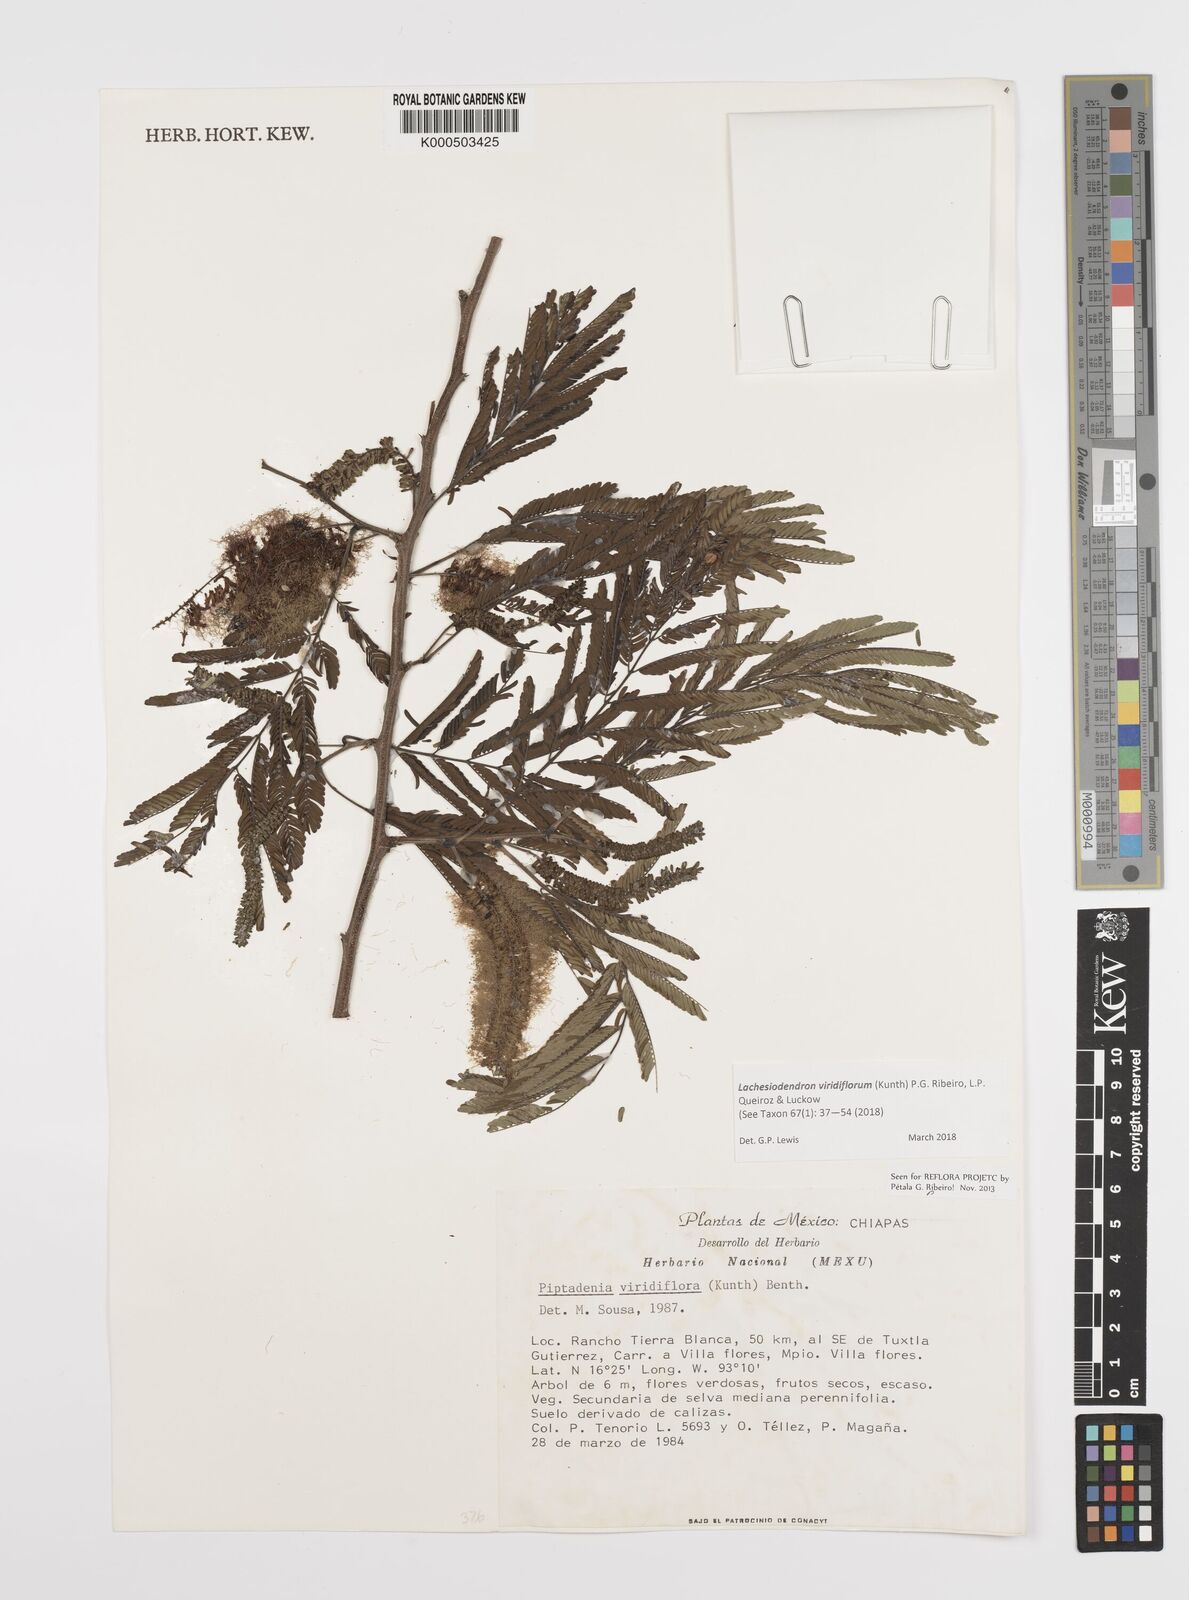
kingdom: Plantae
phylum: Tracheophyta
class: Magnoliopsida
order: Fabales
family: Fabaceae
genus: Lachesiodendron
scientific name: Lachesiodendron viridiflorum
